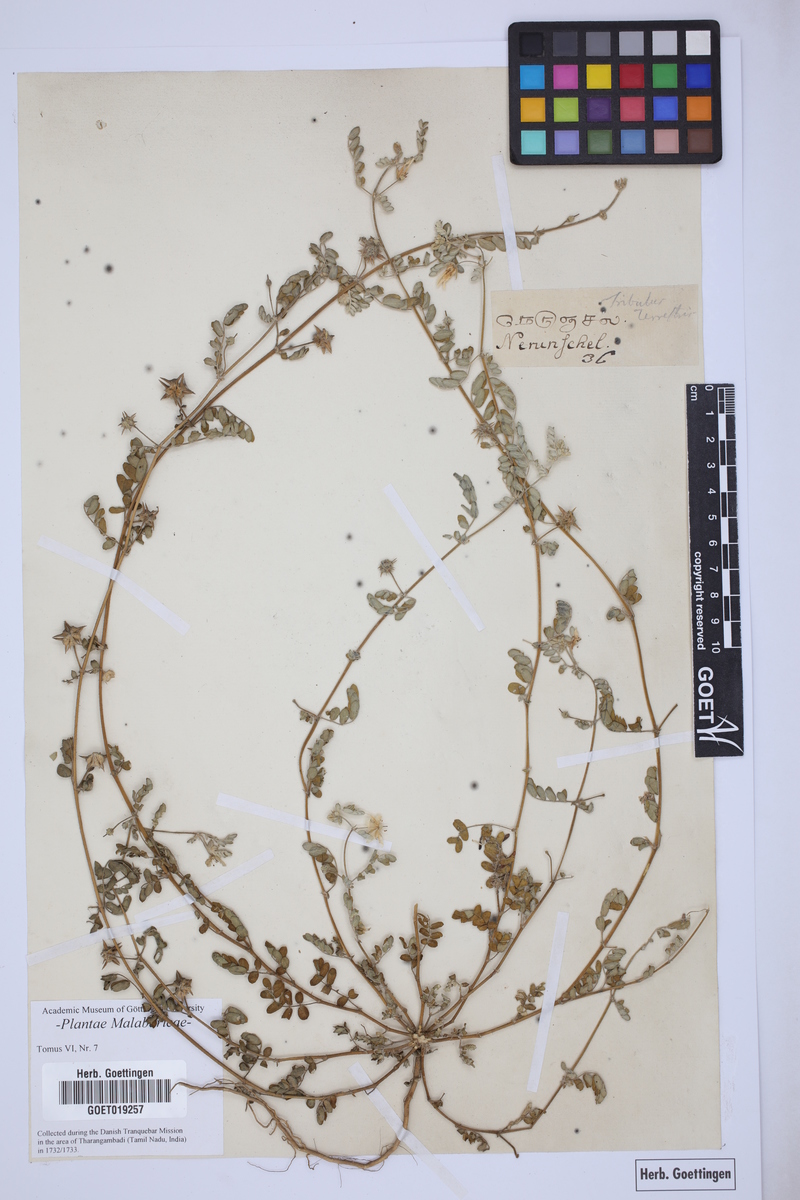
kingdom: Plantae
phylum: Tracheophyta
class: Magnoliopsida
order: Zygophyllales
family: Zygophyllaceae
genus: Tribulus
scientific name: Tribulus terrestris
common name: Puncturevine
